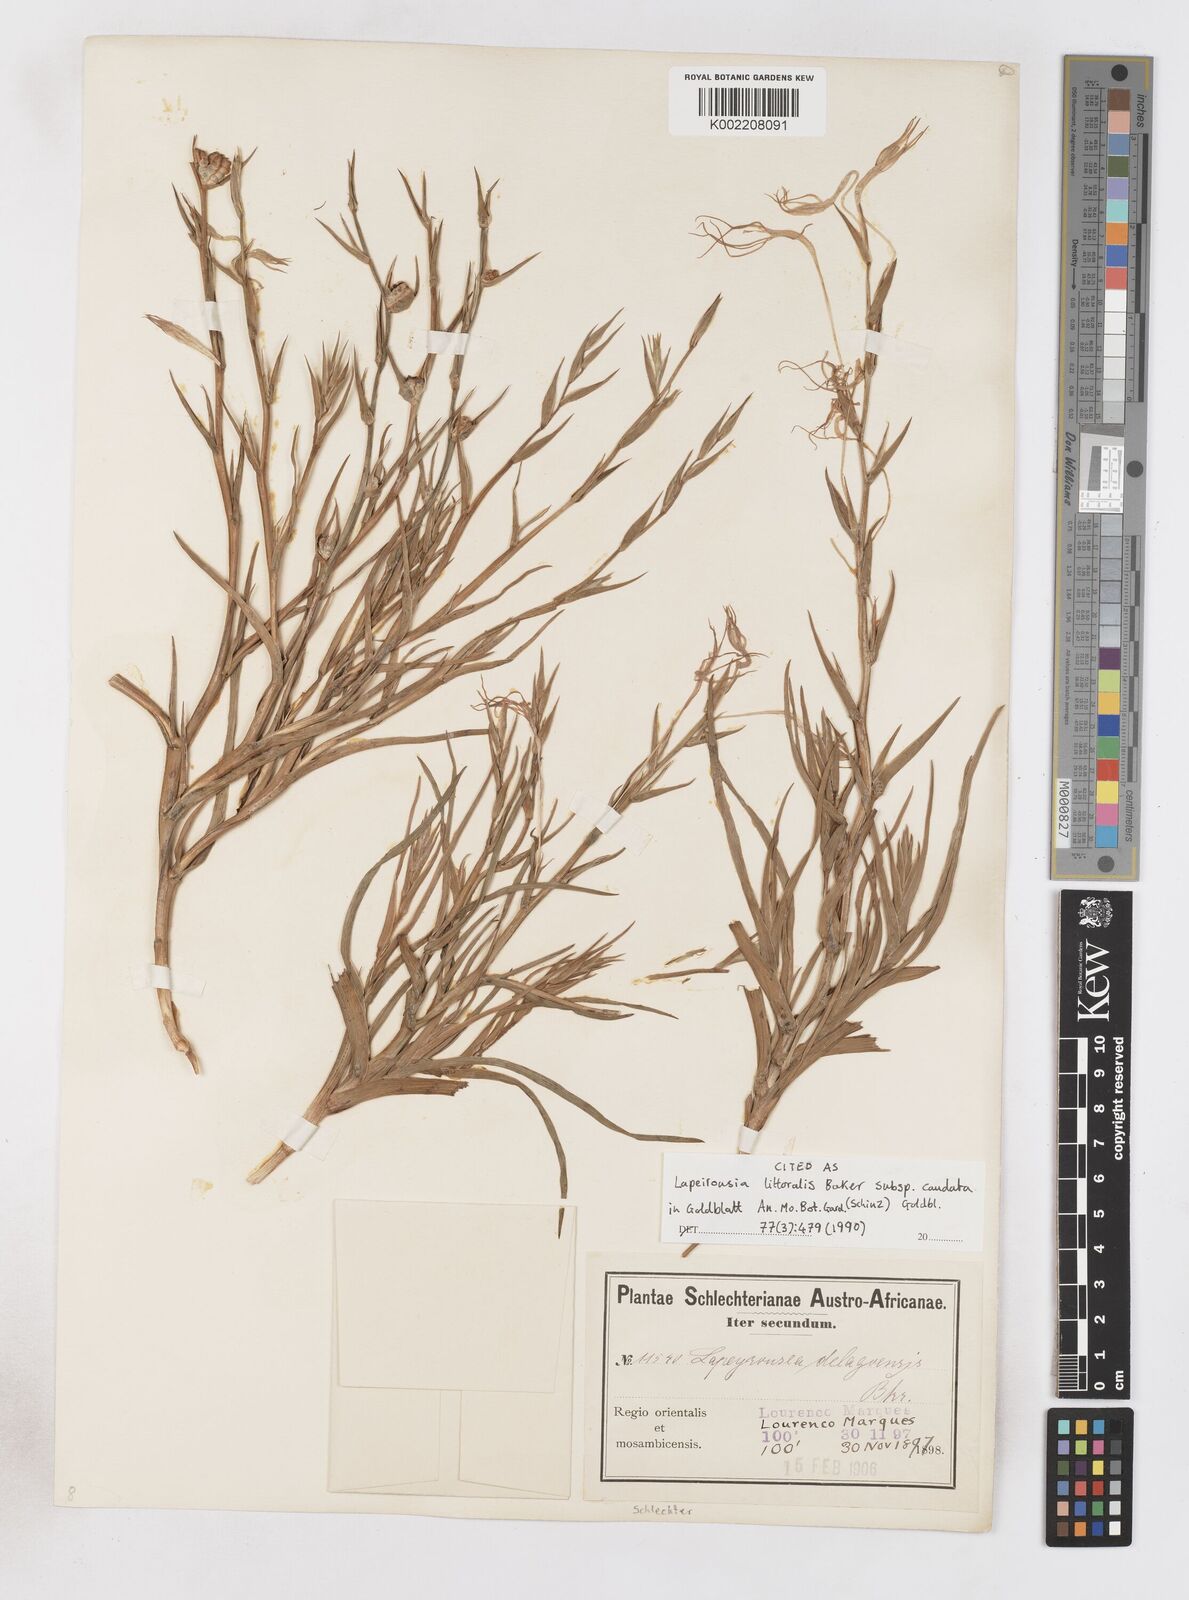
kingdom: Plantae
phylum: Tracheophyta
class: Liliopsida
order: Asparagales
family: Iridaceae
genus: Lapeirousia
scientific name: Lapeirousia caudata
